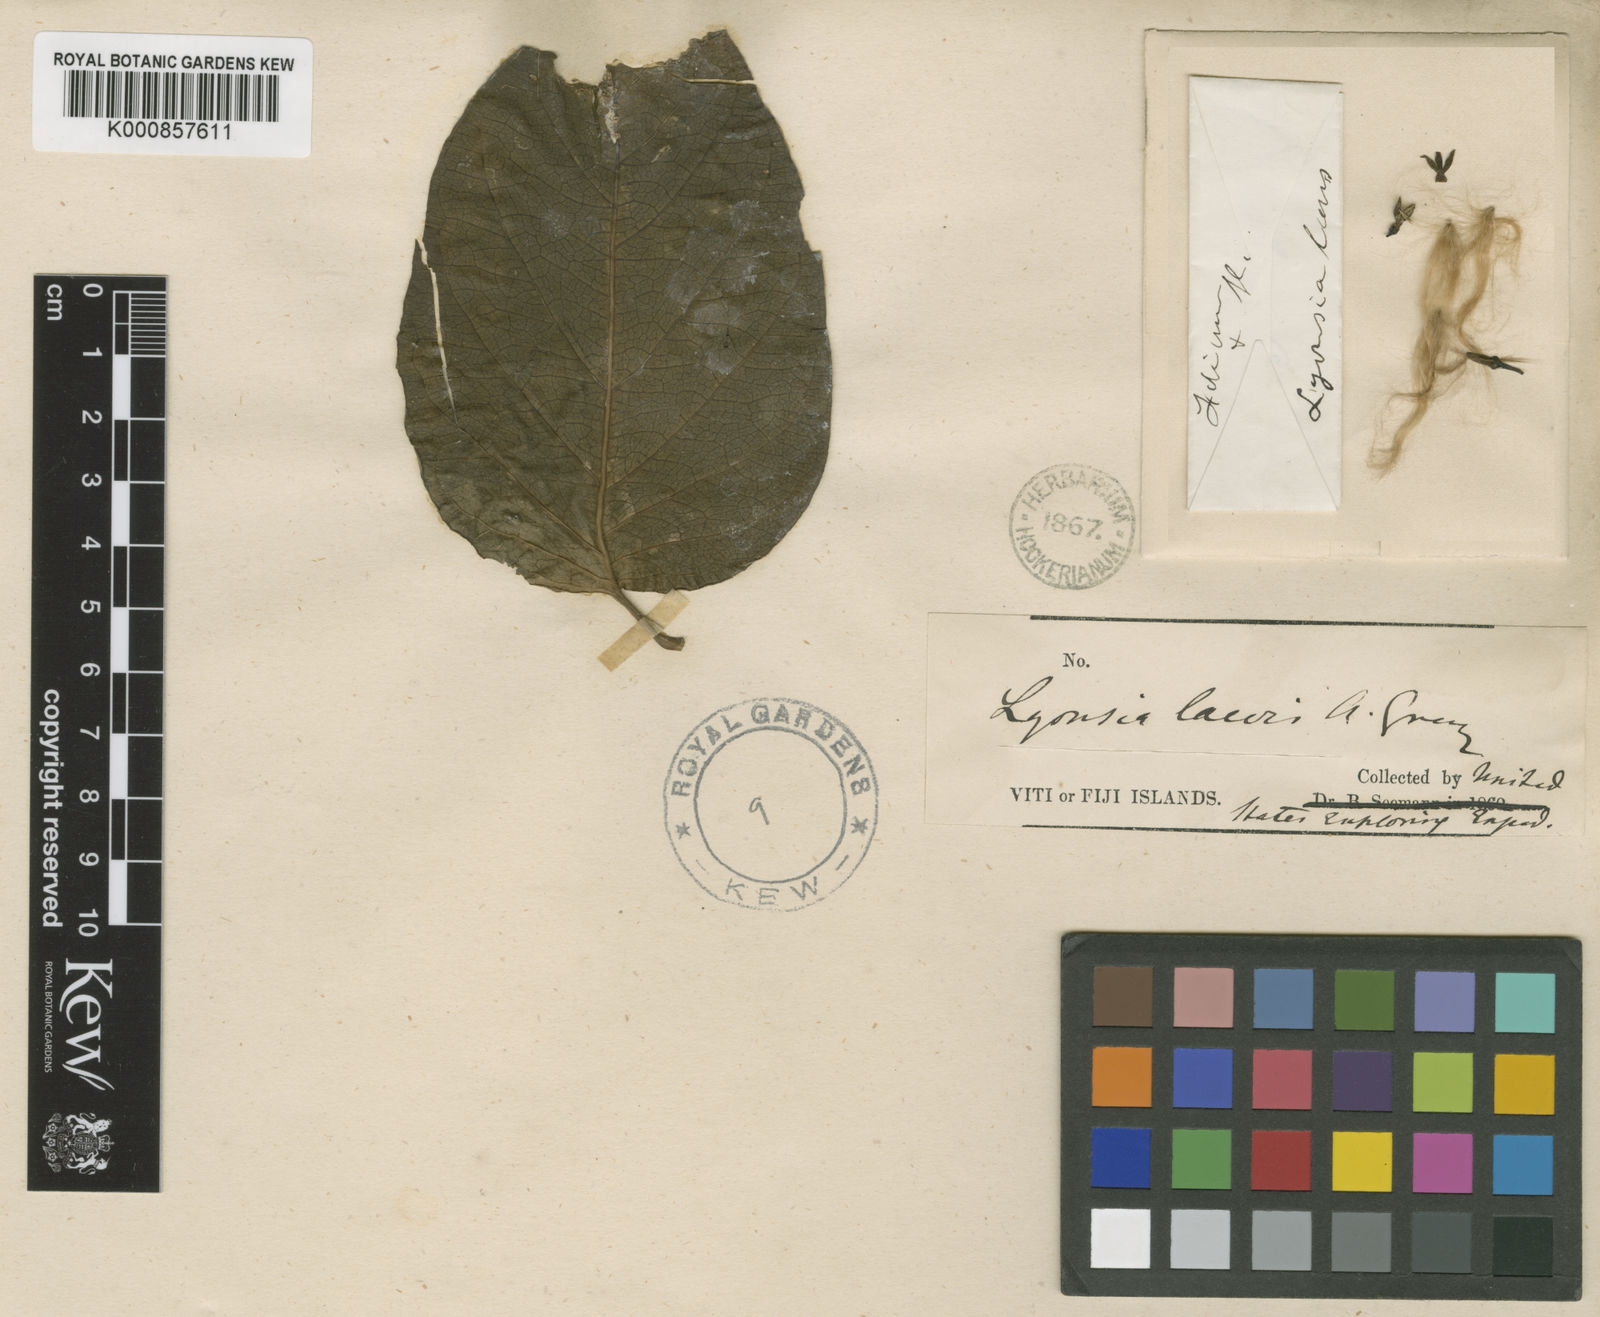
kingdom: Plantae
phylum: Tracheophyta
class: Magnoliopsida
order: Gentianales
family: Apocynaceae
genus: Parsonsia
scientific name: Parsonsia laevis
